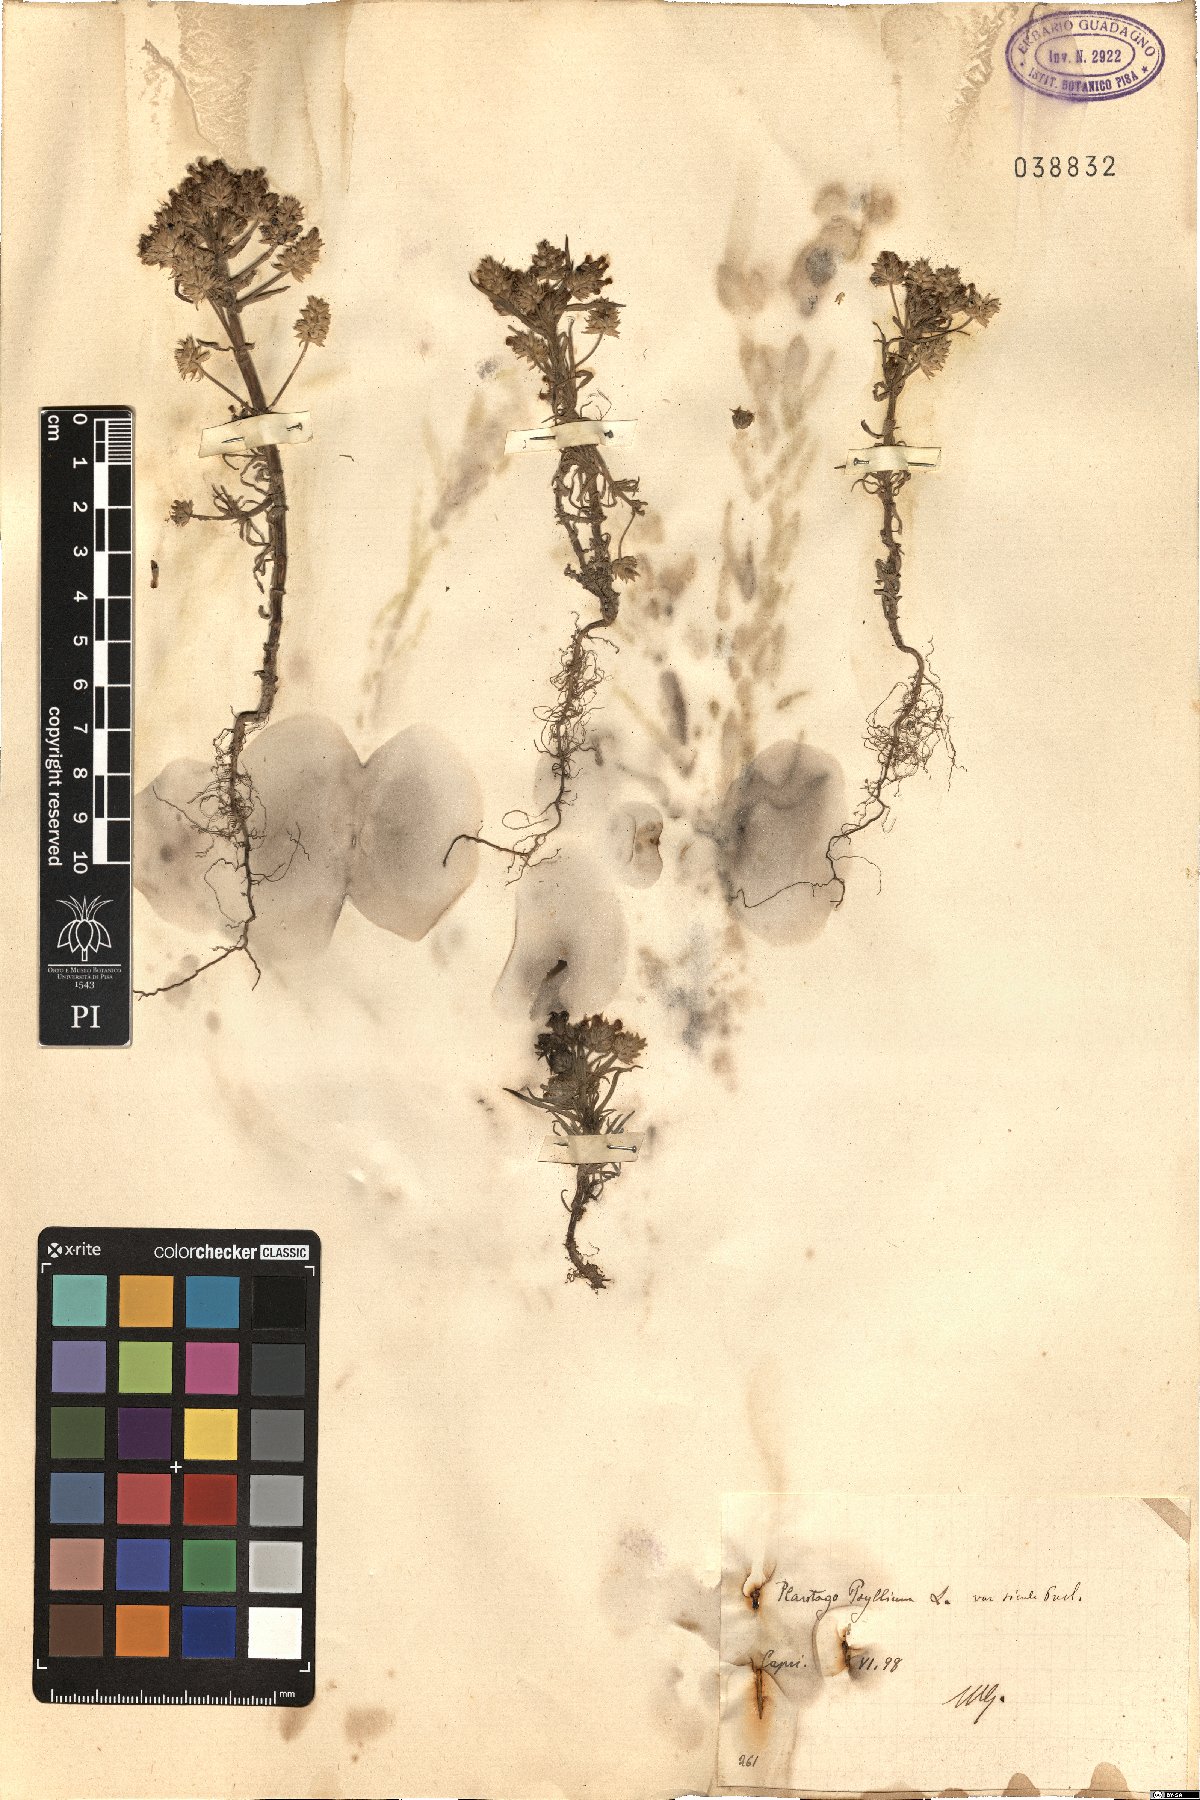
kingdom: Plantae
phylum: Tracheophyta
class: Magnoliopsida
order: Lamiales
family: Plantaginaceae
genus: Plantago
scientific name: Plantago afra
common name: Glandular plantain
